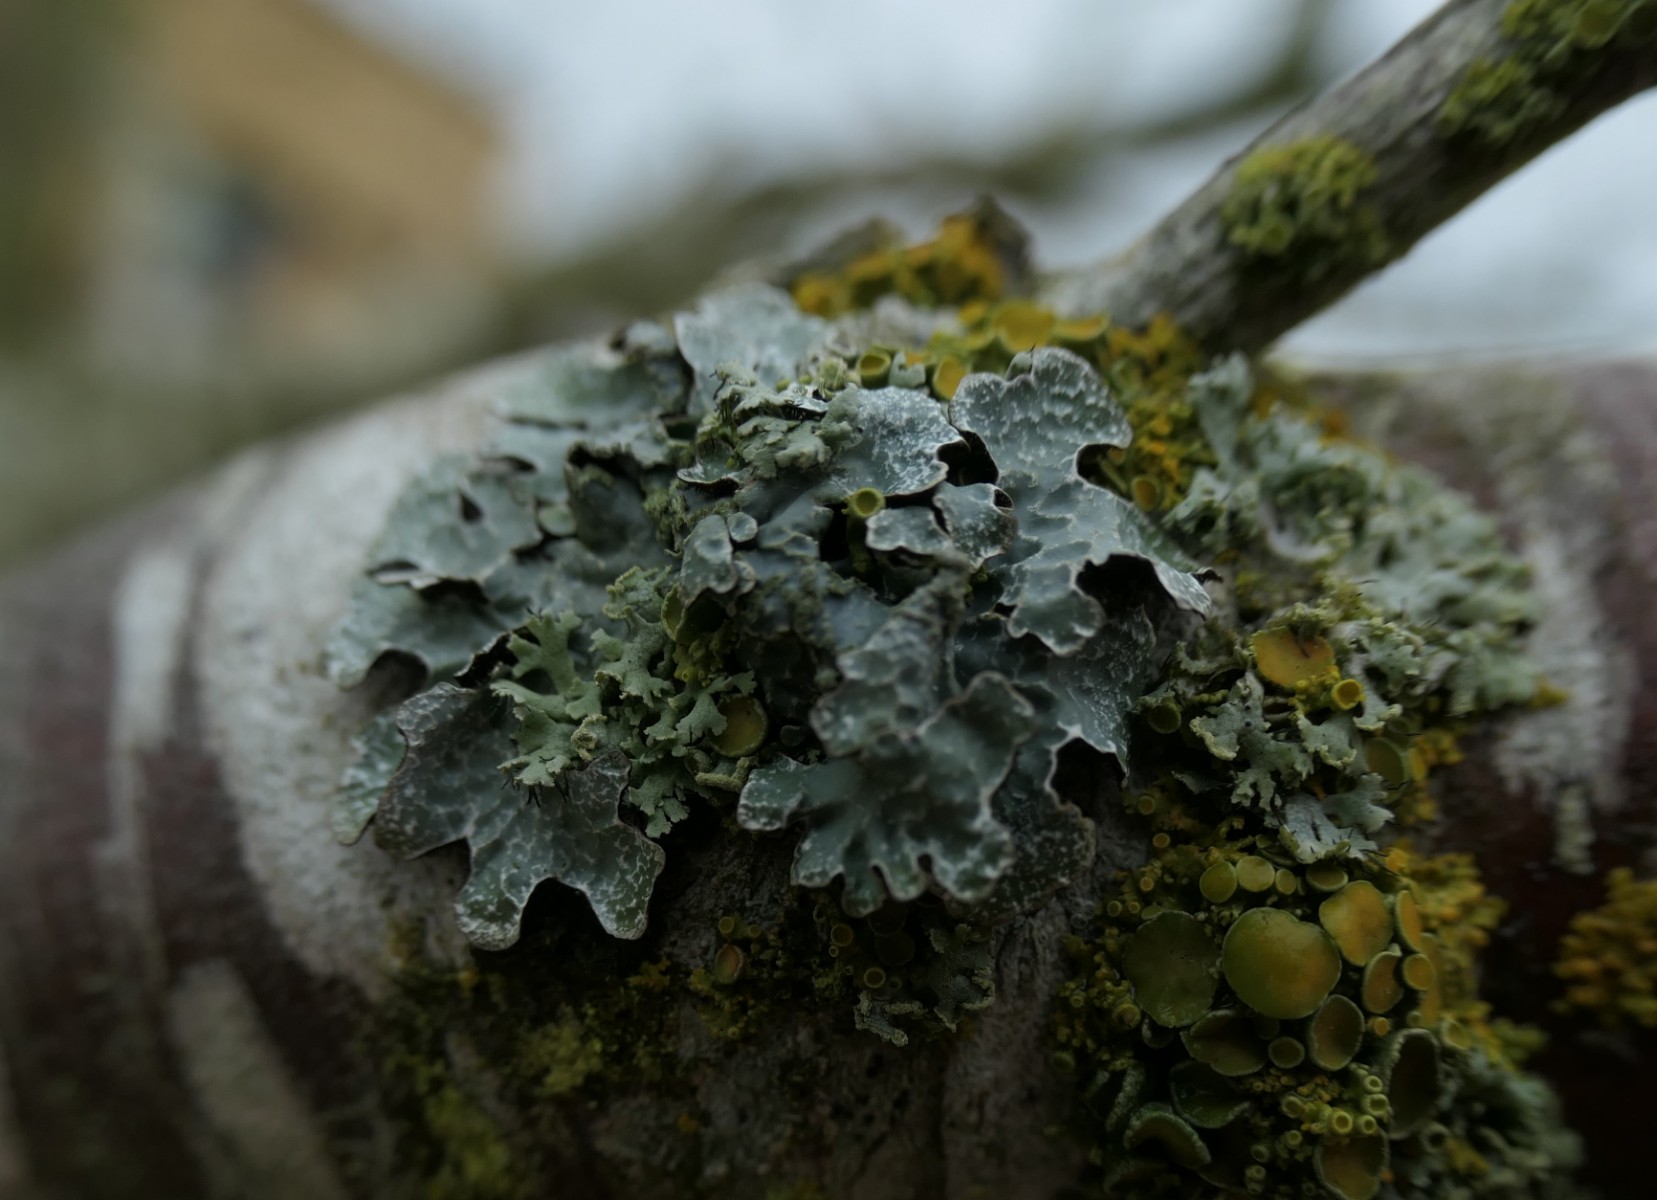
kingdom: Fungi
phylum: Ascomycota
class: Lecanoromycetes
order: Lecanorales
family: Parmeliaceae
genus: Parmelia
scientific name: Parmelia sulcata
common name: rynket skållav
